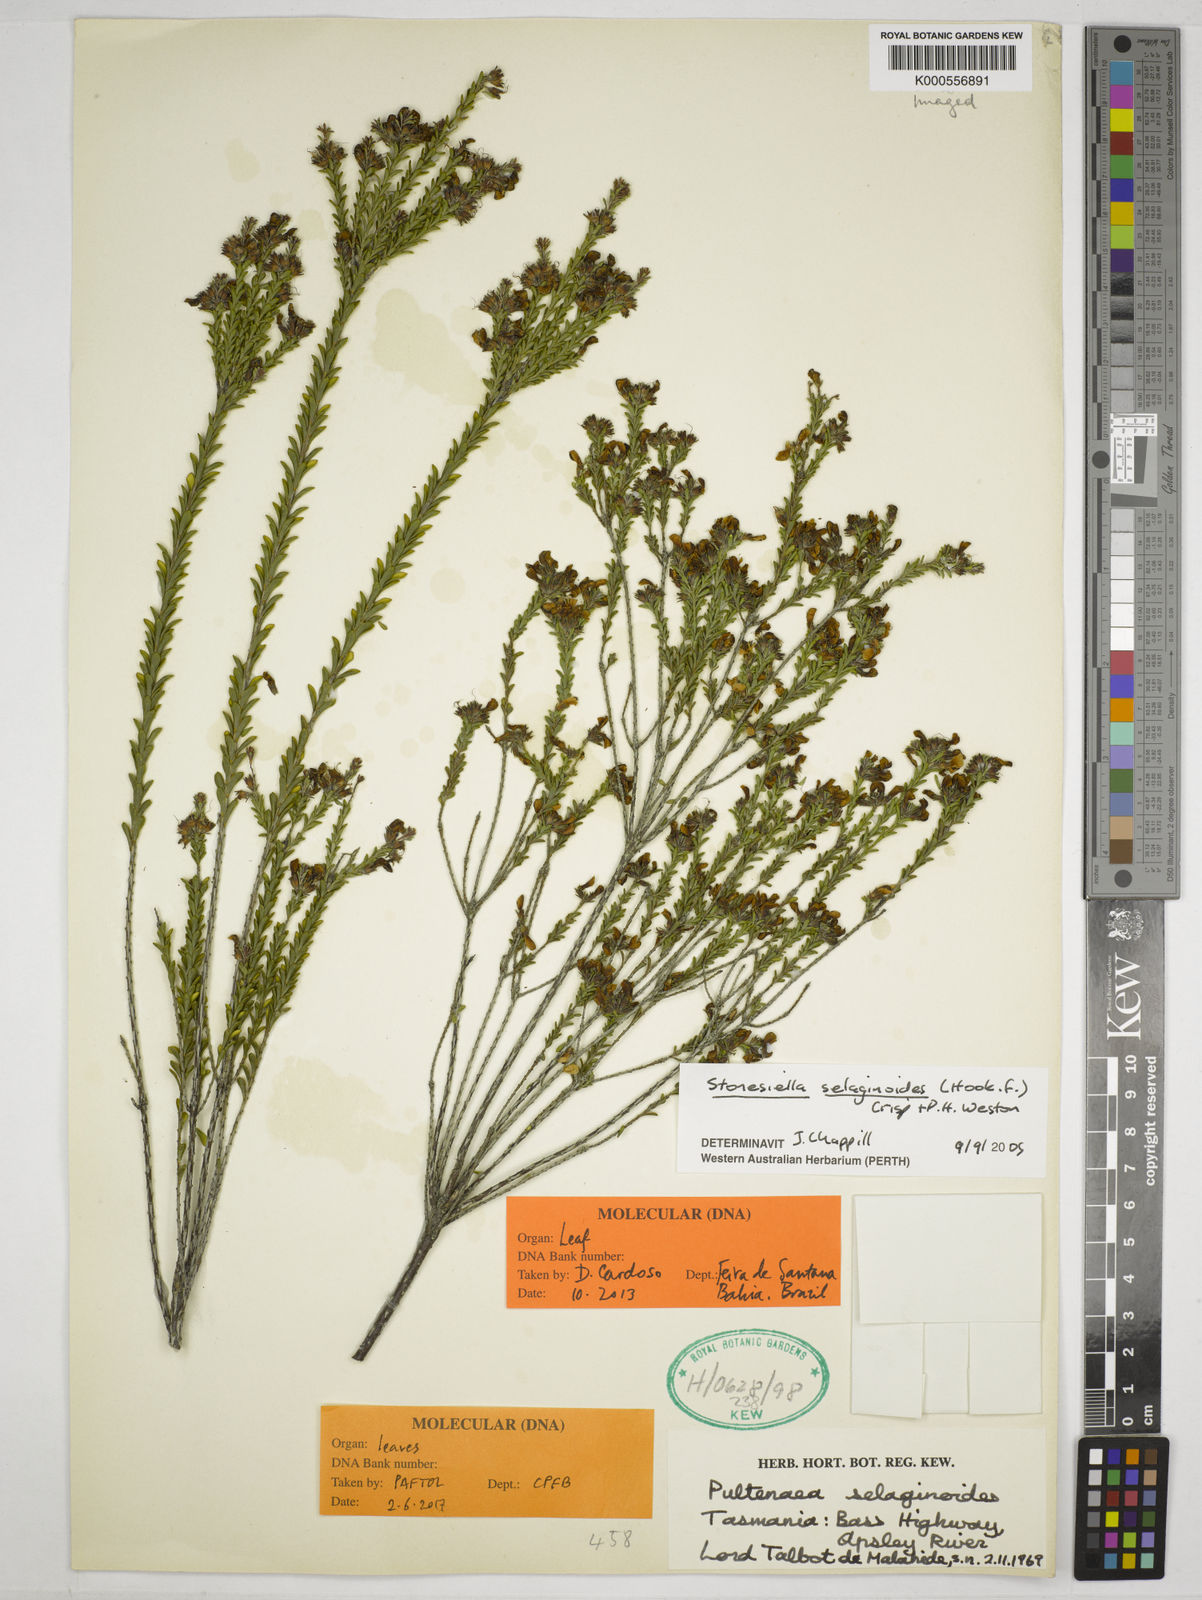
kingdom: Plantae
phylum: Tracheophyta
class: Magnoliopsida
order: Fabales
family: Fabaceae
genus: Stonesiella
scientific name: Stonesiella selaginoides
